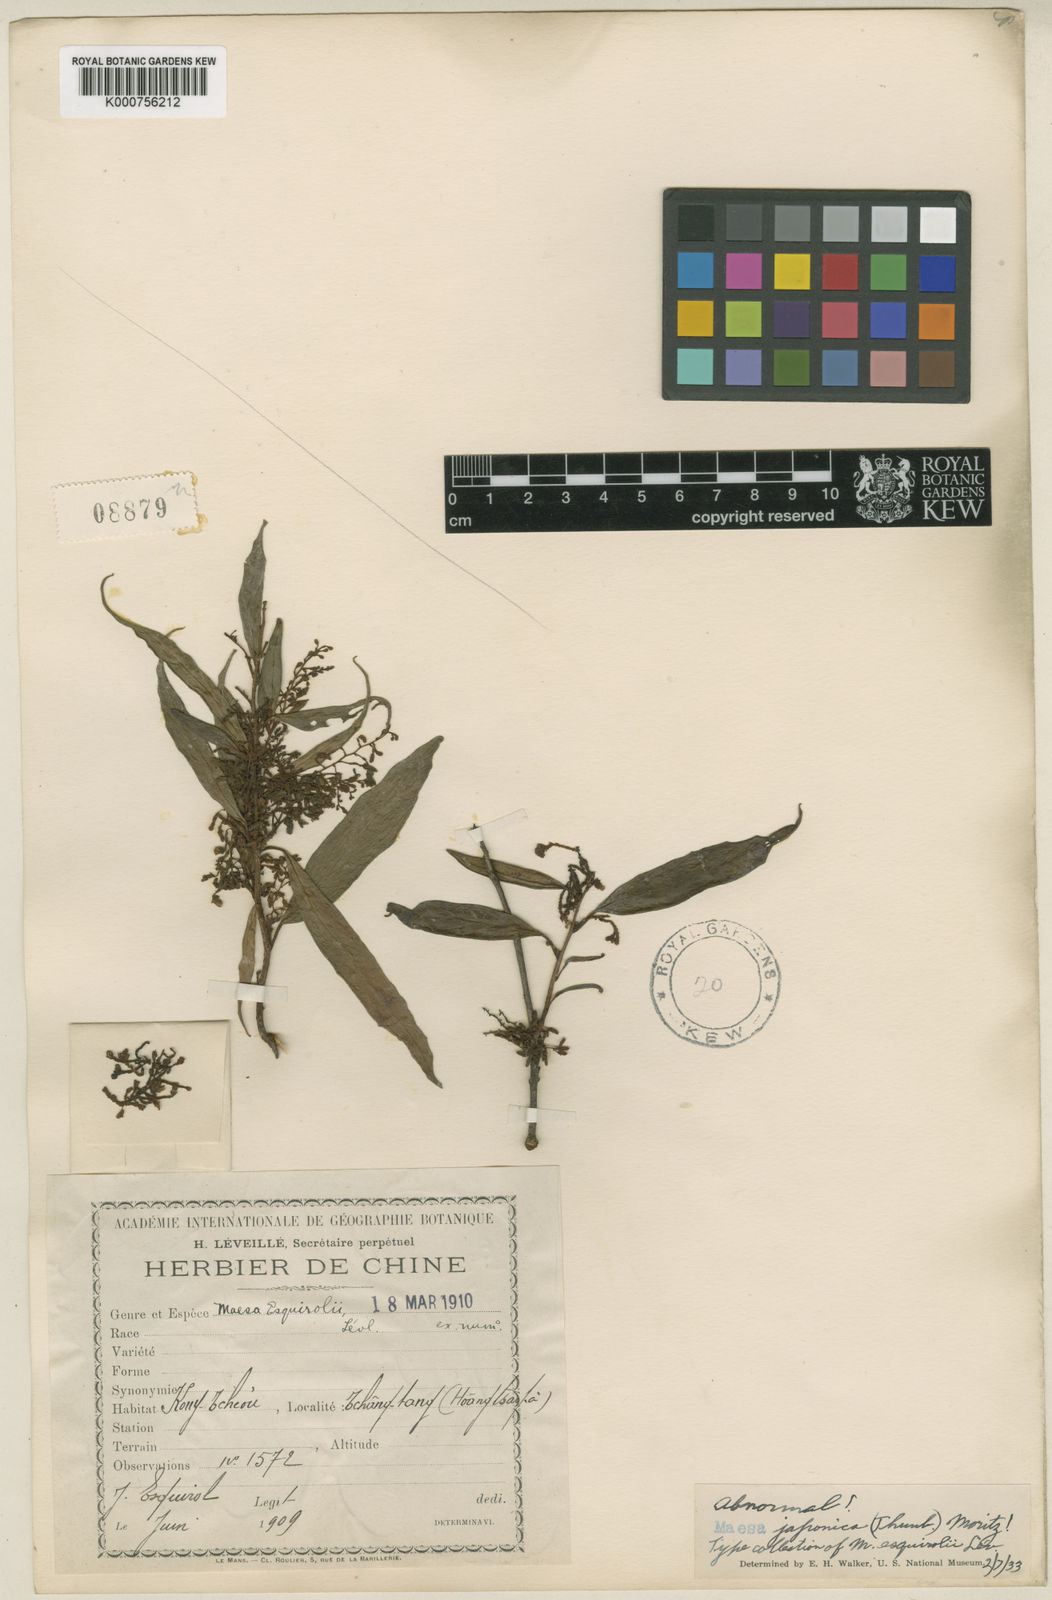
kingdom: Plantae
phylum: Tracheophyta
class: Magnoliopsida
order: Ericales
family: Primulaceae
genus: Maesa
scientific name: Maesa japonica
